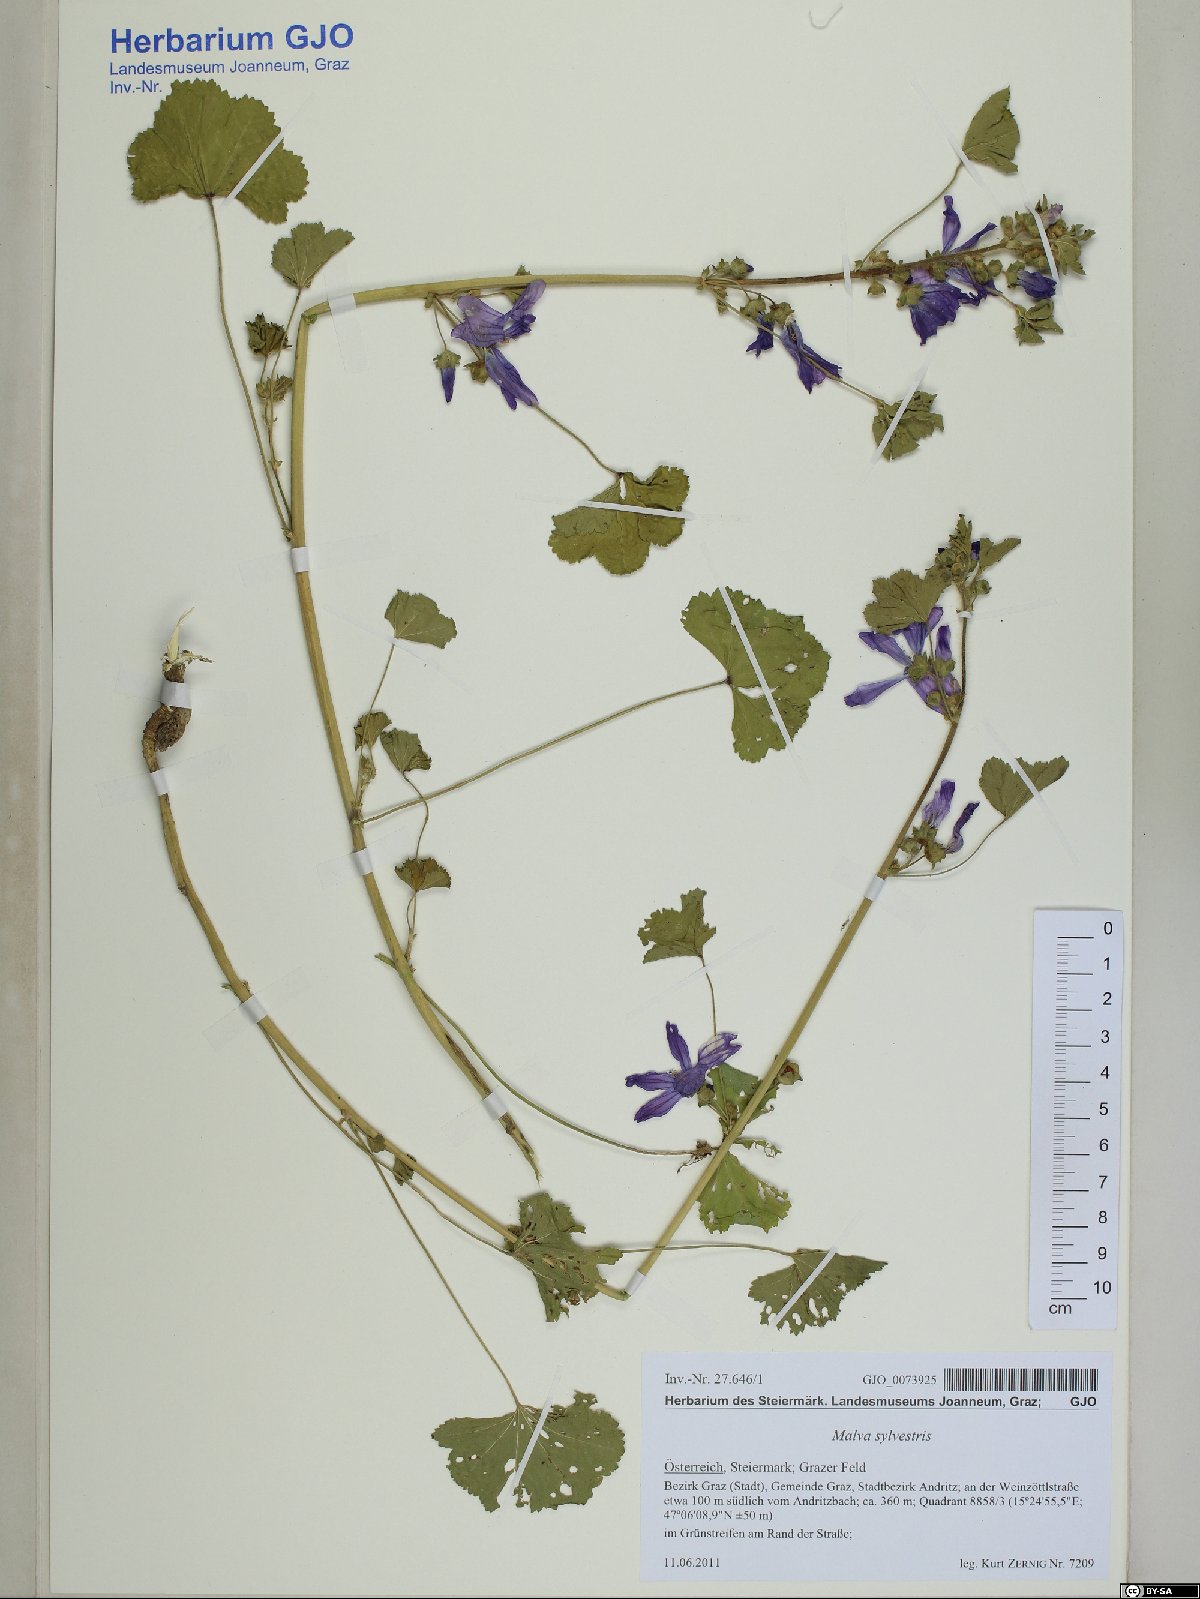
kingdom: Plantae
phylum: Tracheophyta
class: Magnoliopsida
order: Malvales
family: Malvaceae
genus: Malva
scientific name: Malva sylvestris
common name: Common mallow
